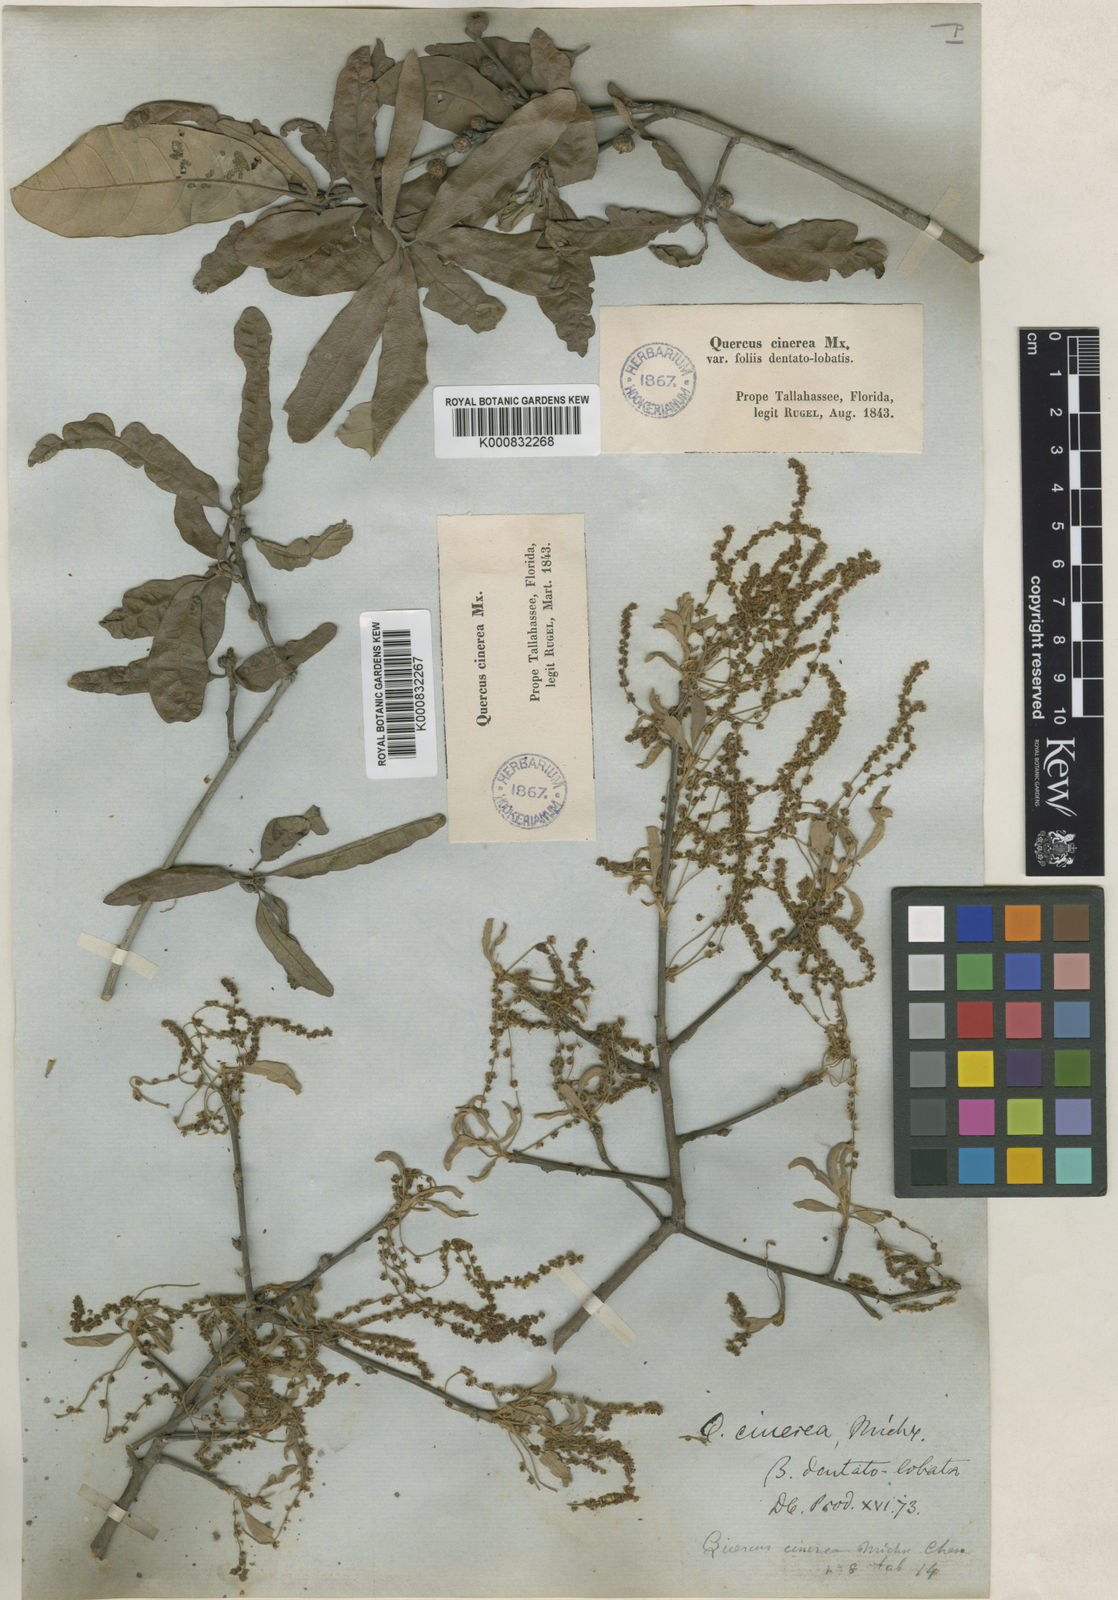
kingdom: Plantae
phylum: Tracheophyta
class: Magnoliopsida
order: Fagales
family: Fagaceae
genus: Quercus
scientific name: Quercus incana
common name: Bluejack oak
